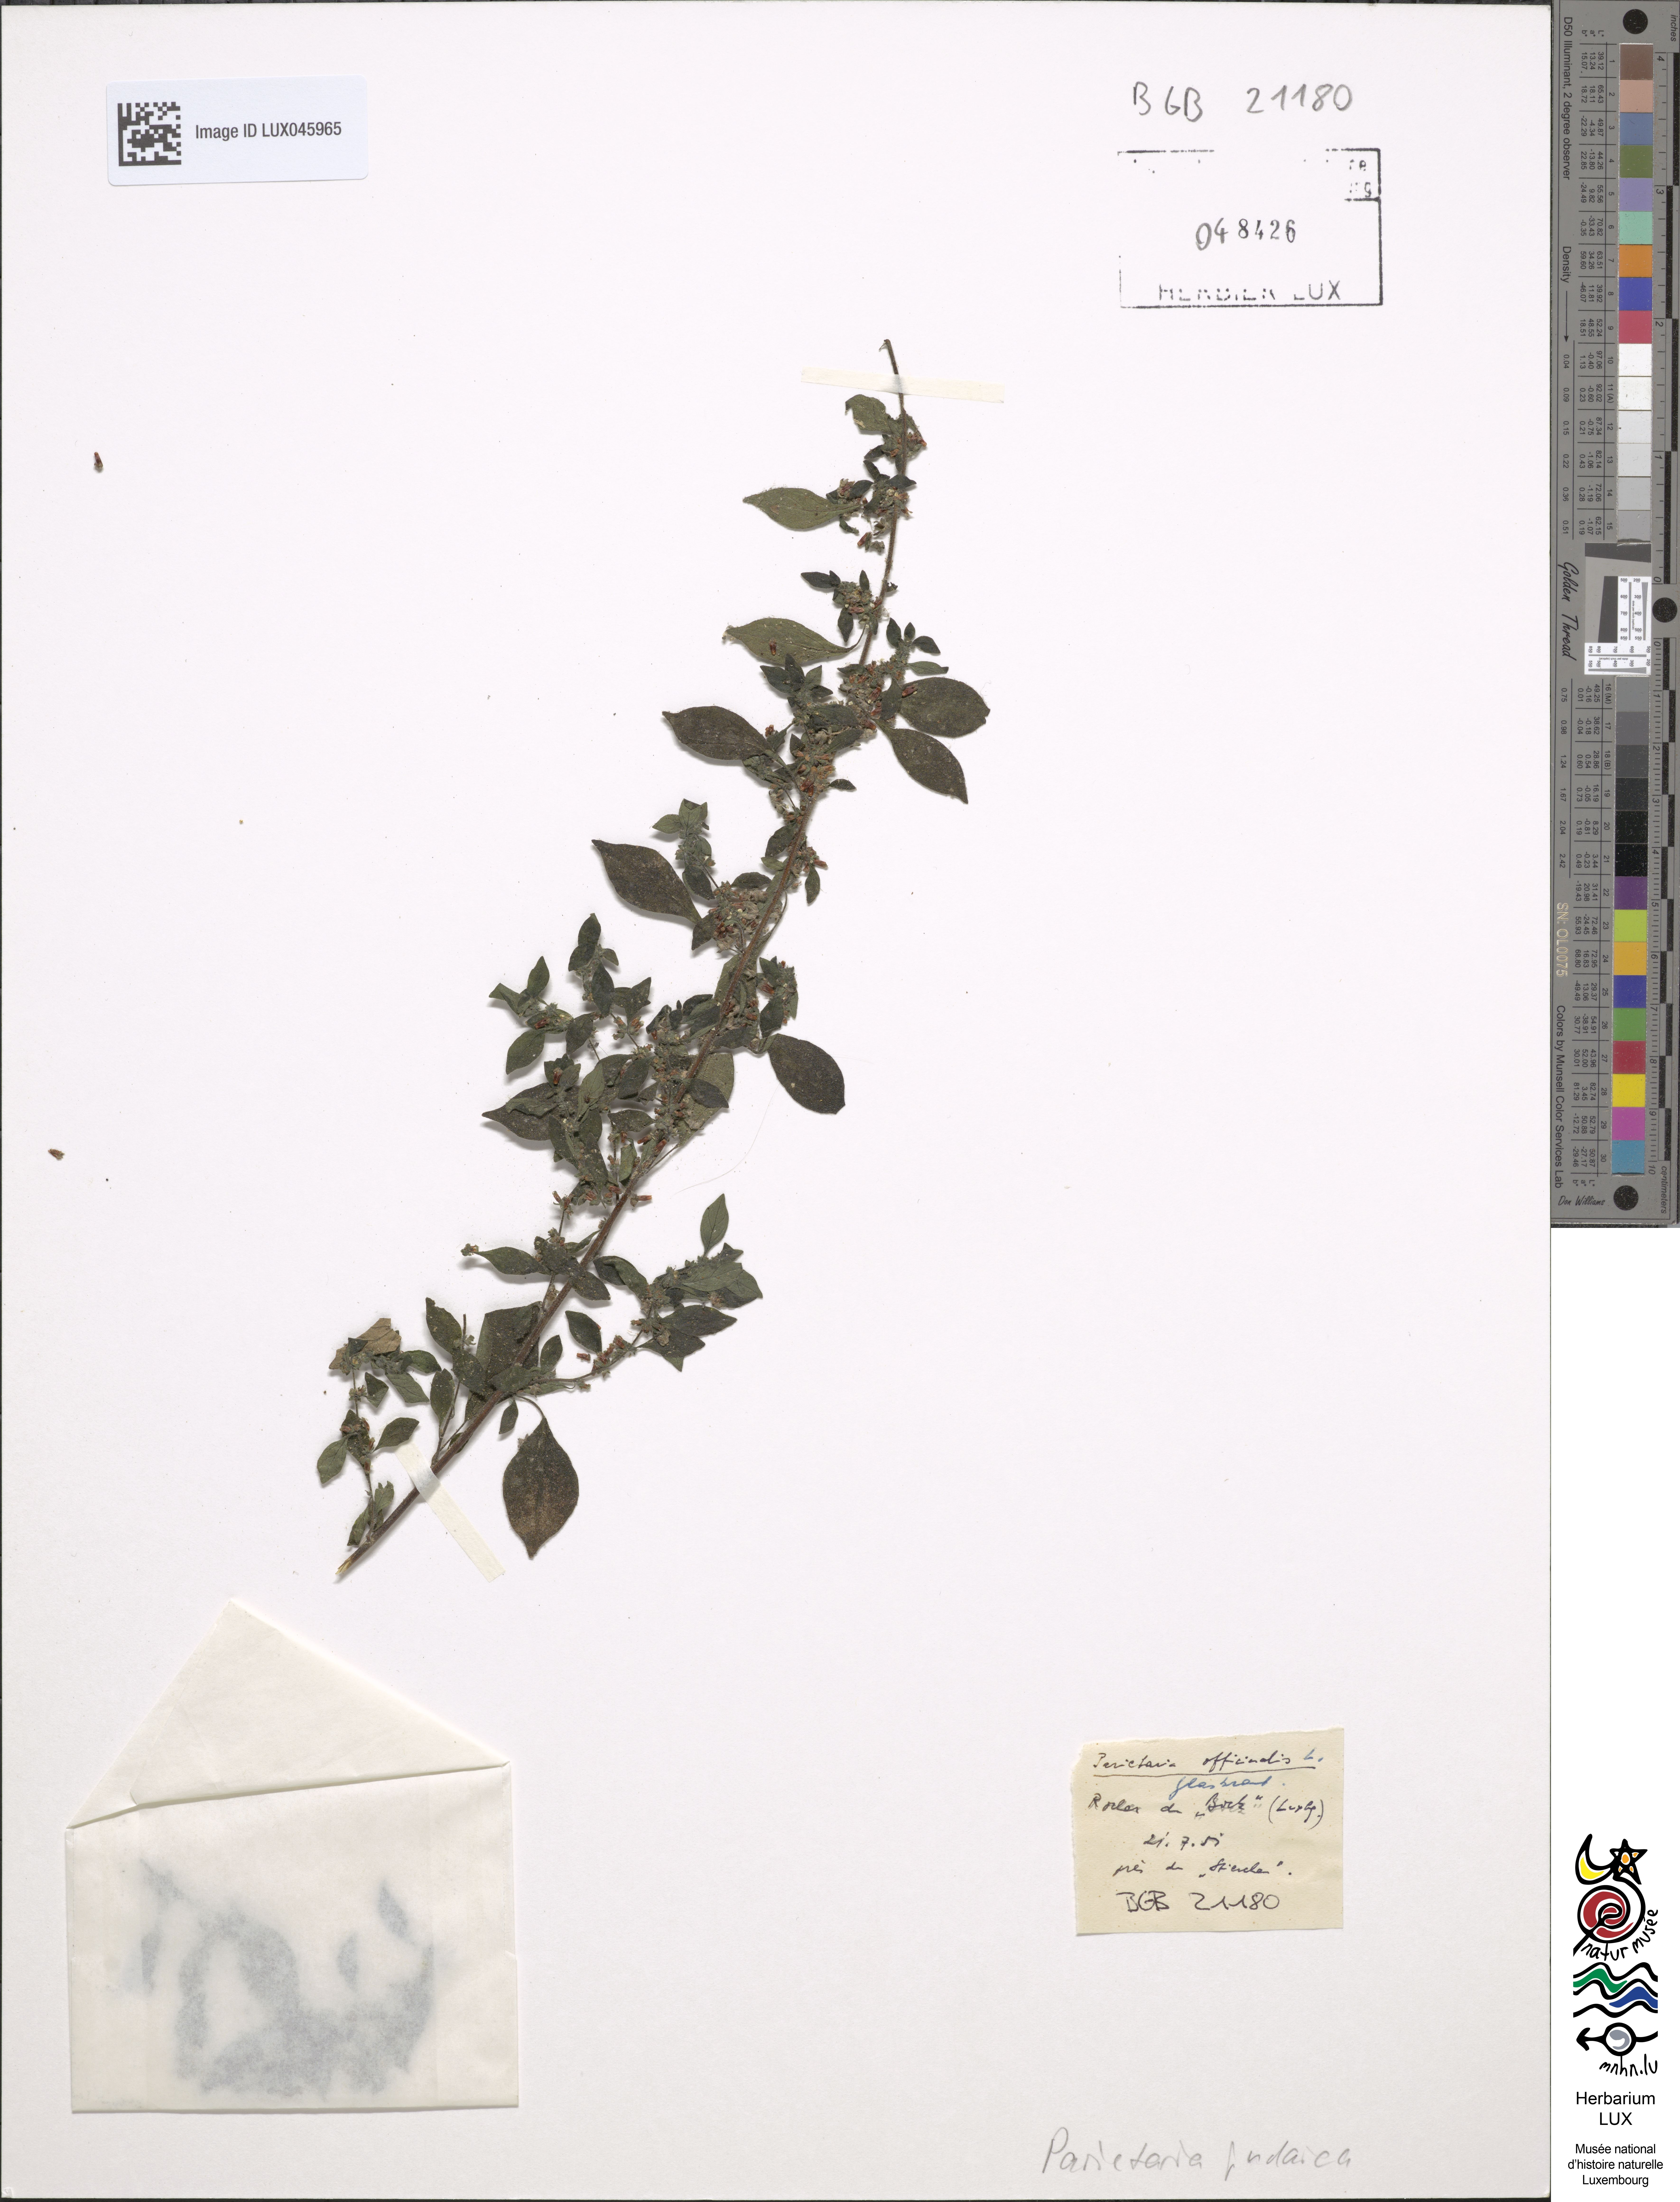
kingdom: Plantae
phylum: Tracheophyta
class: Magnoliopsida
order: Rosales
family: Urticaceae
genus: Parietaria
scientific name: Parietaria judaica
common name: Pellitory-of-the-wall
